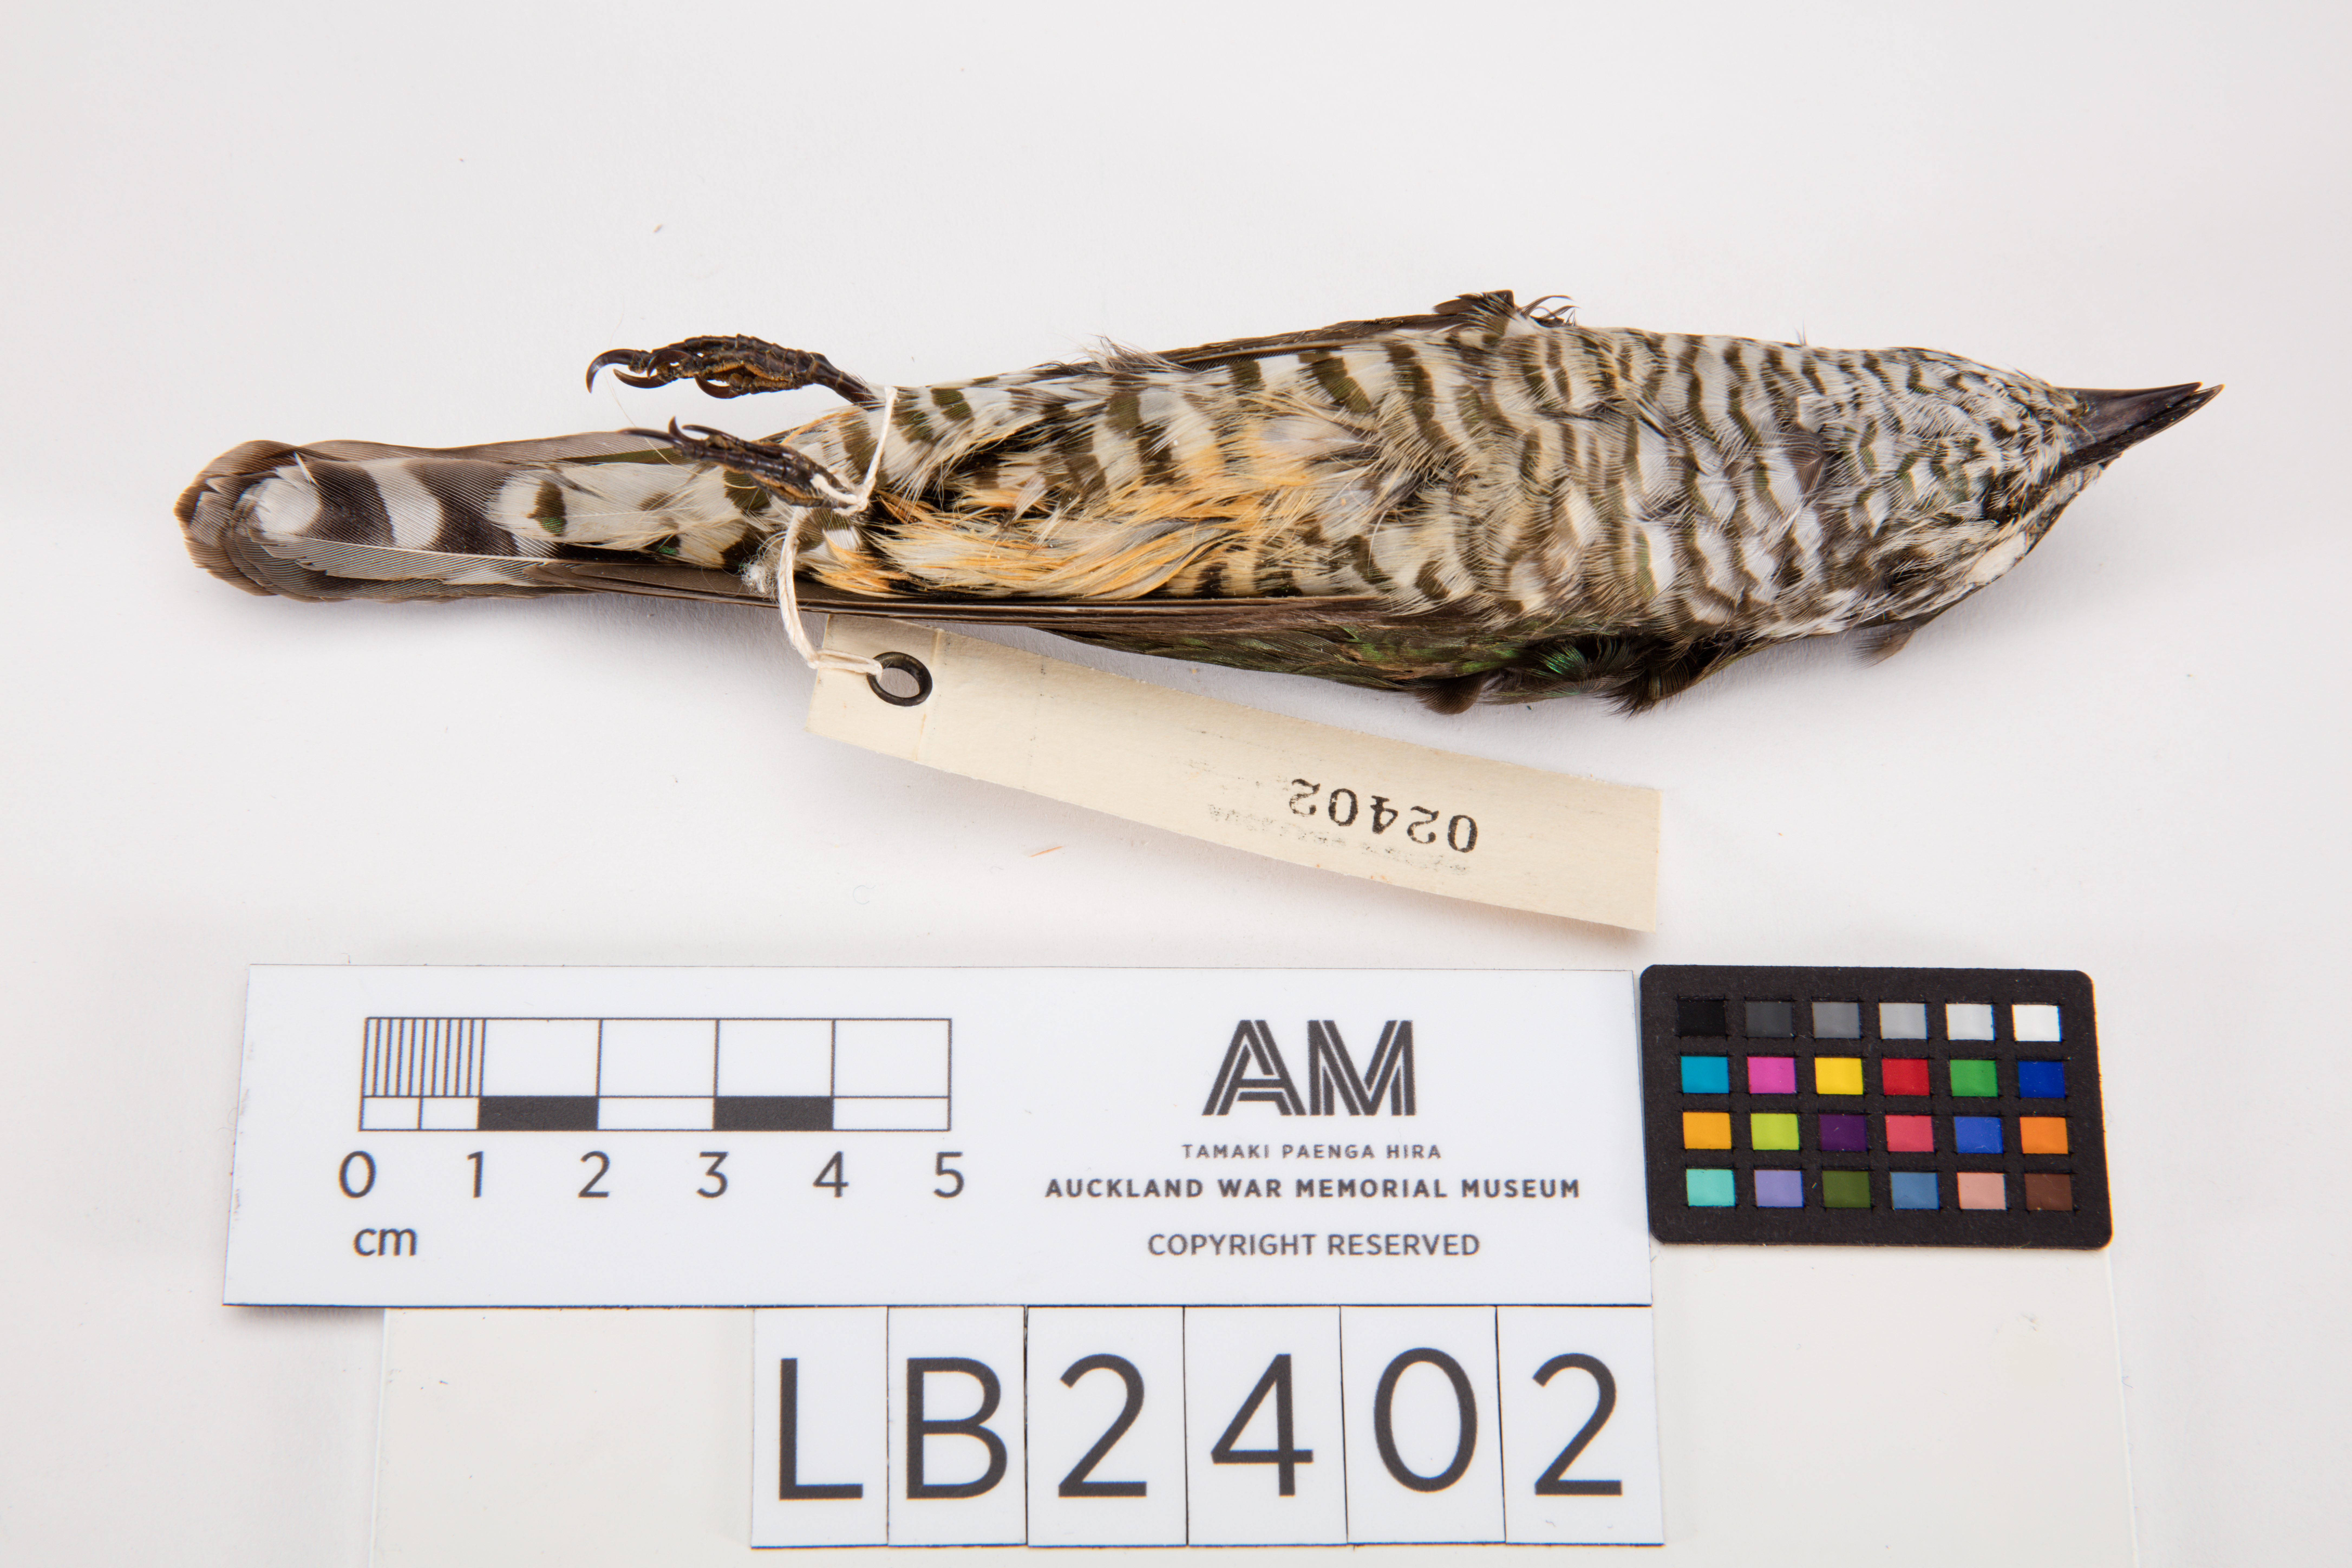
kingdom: Animalia
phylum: Chordata
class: Aves
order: Cuculiformes
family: Cuculidae
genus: Chrysococcyx
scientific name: Chrysococcyx lucidus
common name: Shining bronze cuckoo
